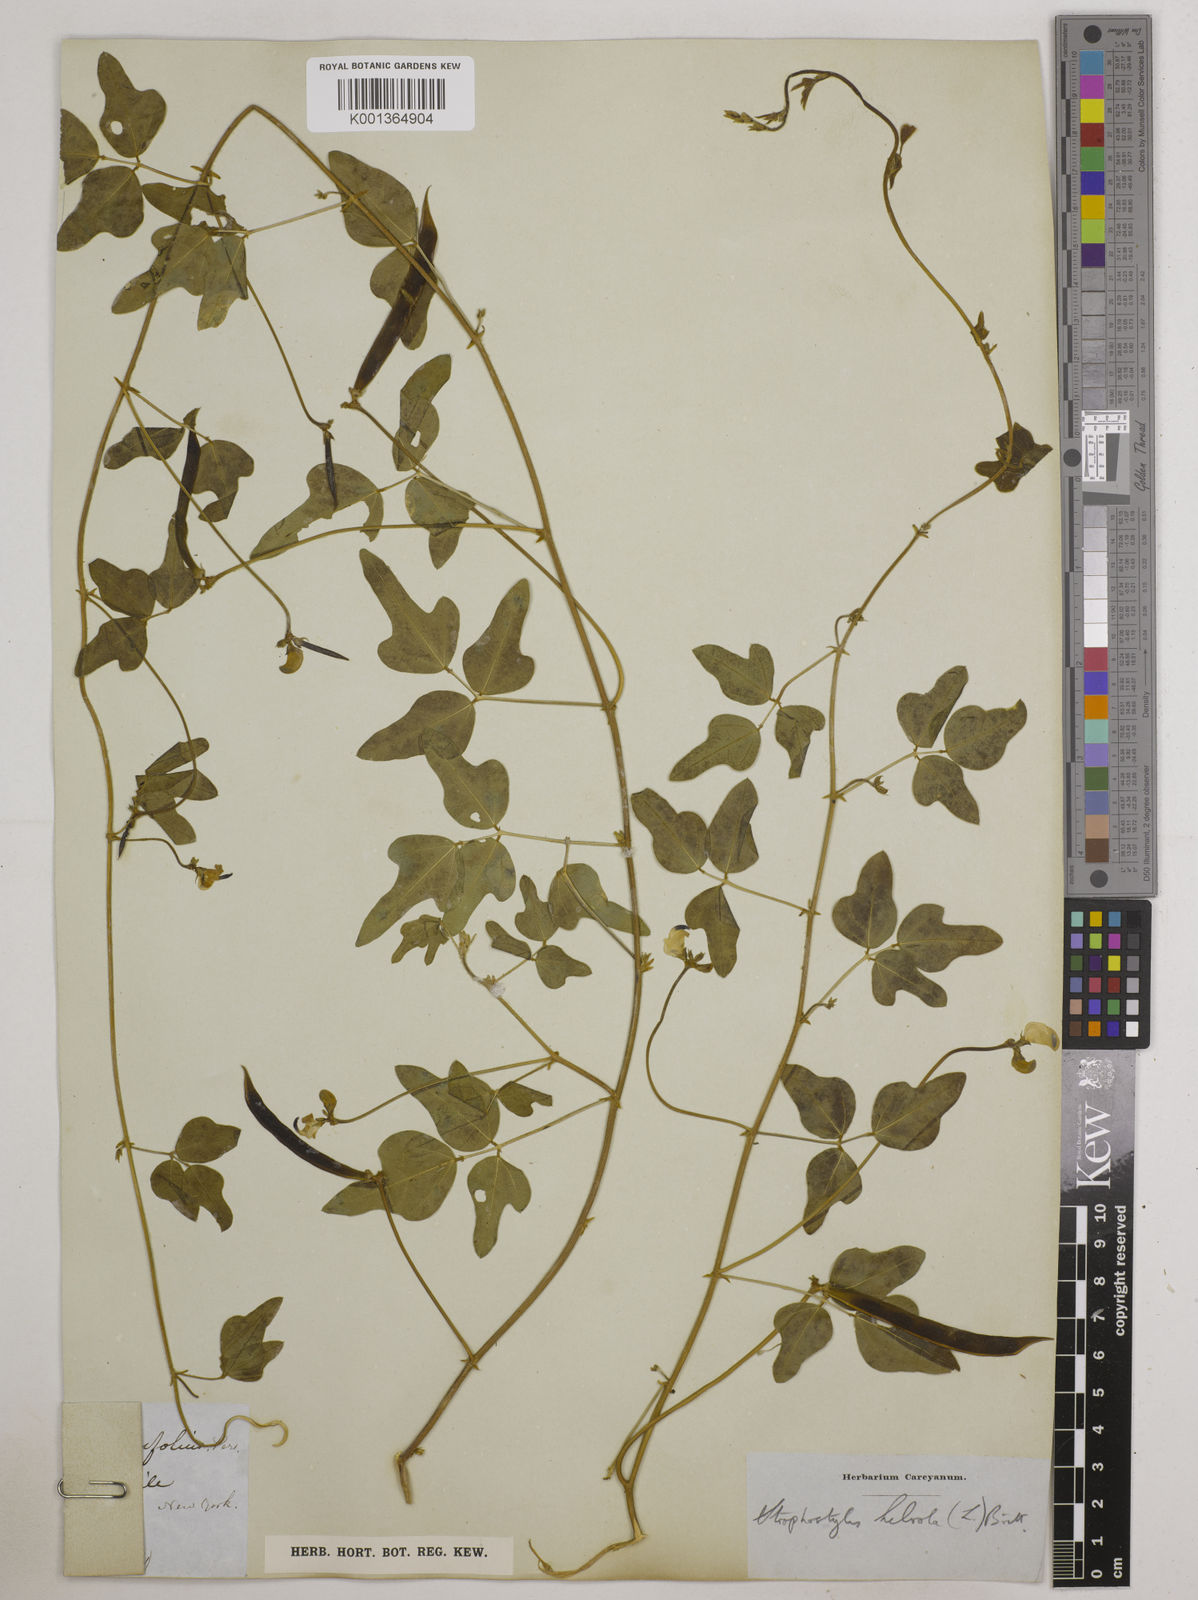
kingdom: Plantae
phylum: Tracheophyta
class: Magnoliopsida
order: Fabales
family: Fabaceae
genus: Strophostyles
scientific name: Strophostyles
